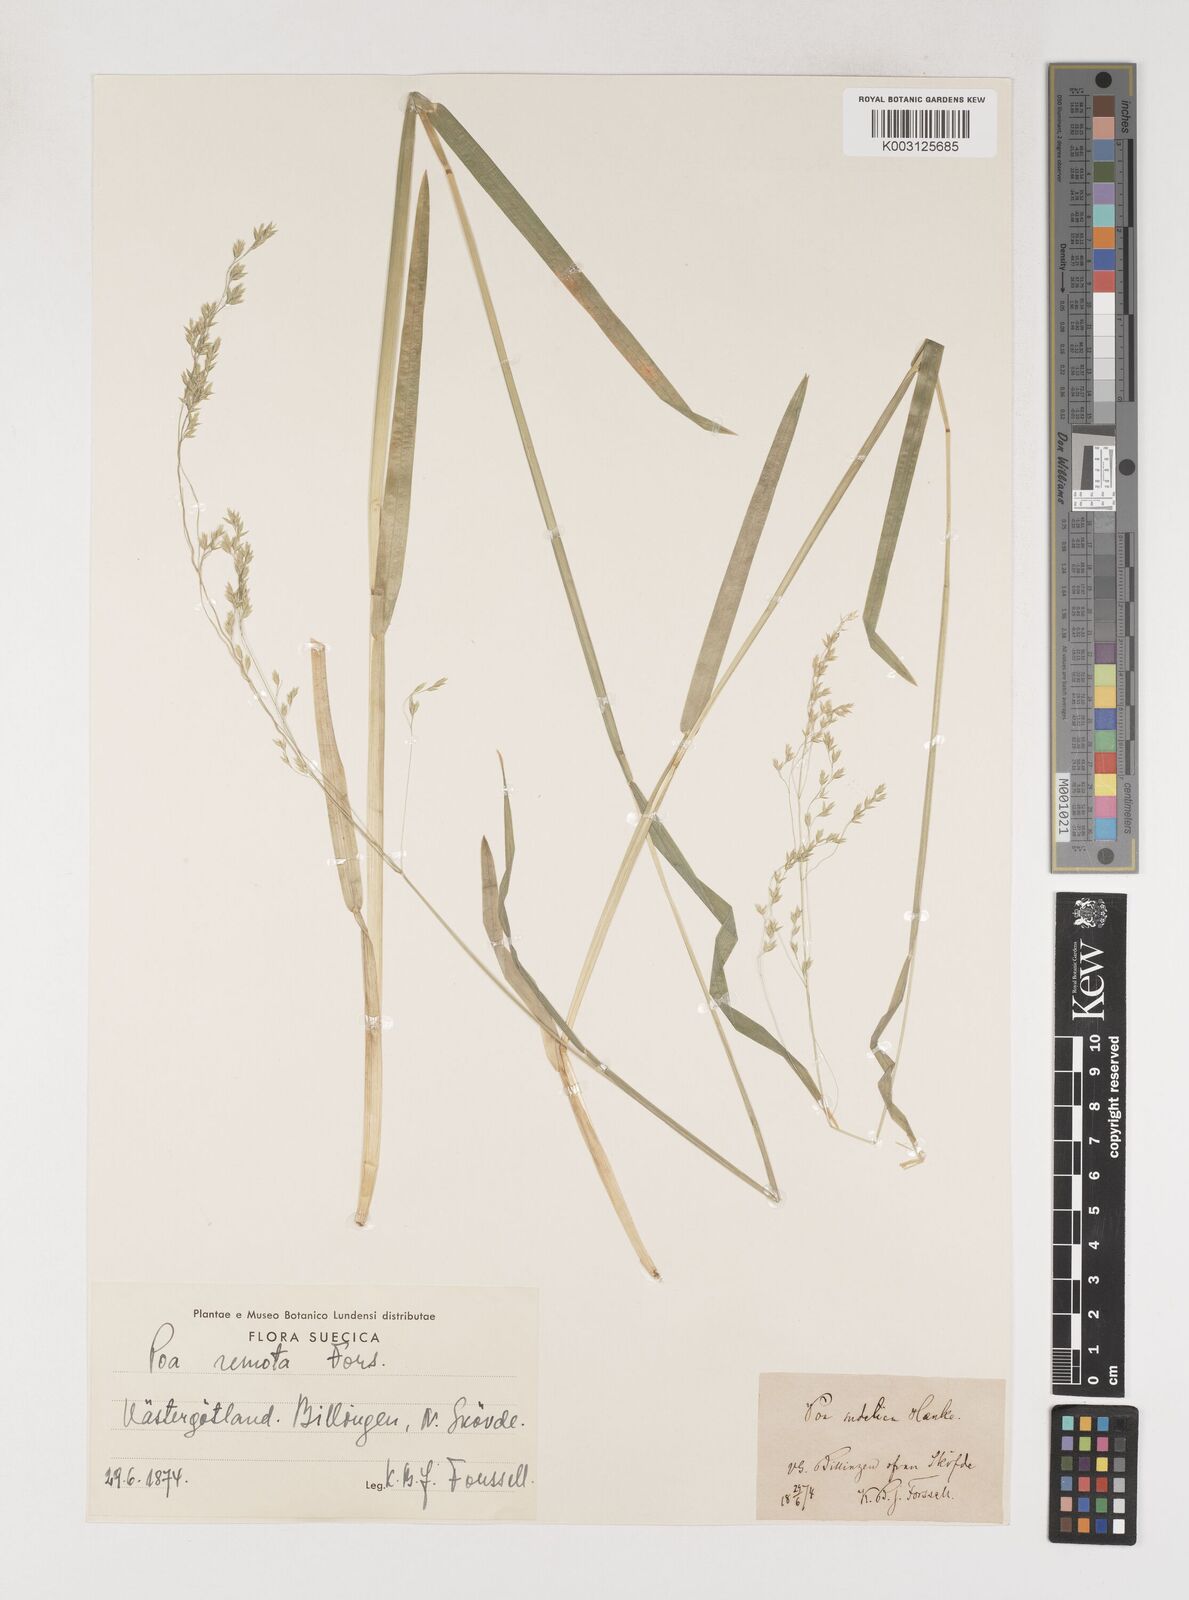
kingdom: Plantae
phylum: Tracheophyta
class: Liliopsida
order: Poales
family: Poaceae
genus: Poa
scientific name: Poa chaixii
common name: Broad-leaved meadow-grass
